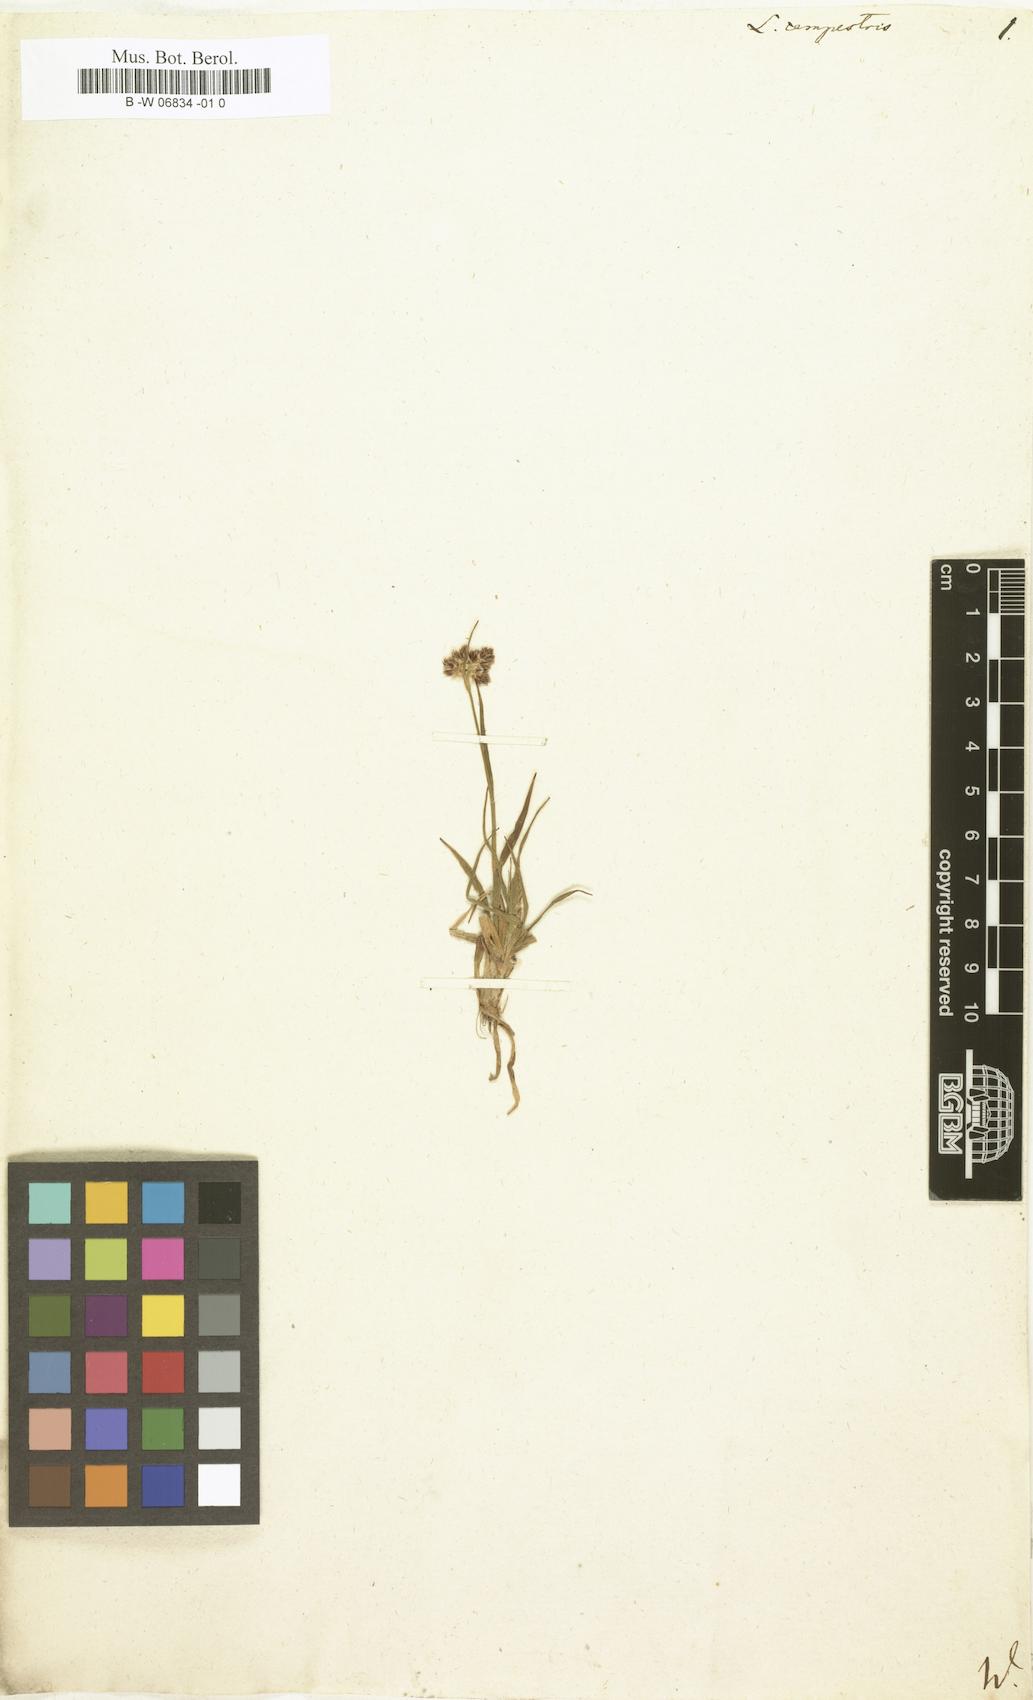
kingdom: Plantae
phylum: Tracheophyta
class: Liliopsida
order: Poales
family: Juncaceae
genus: Luzula
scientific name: Luzula campestris
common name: Field wood-rush
